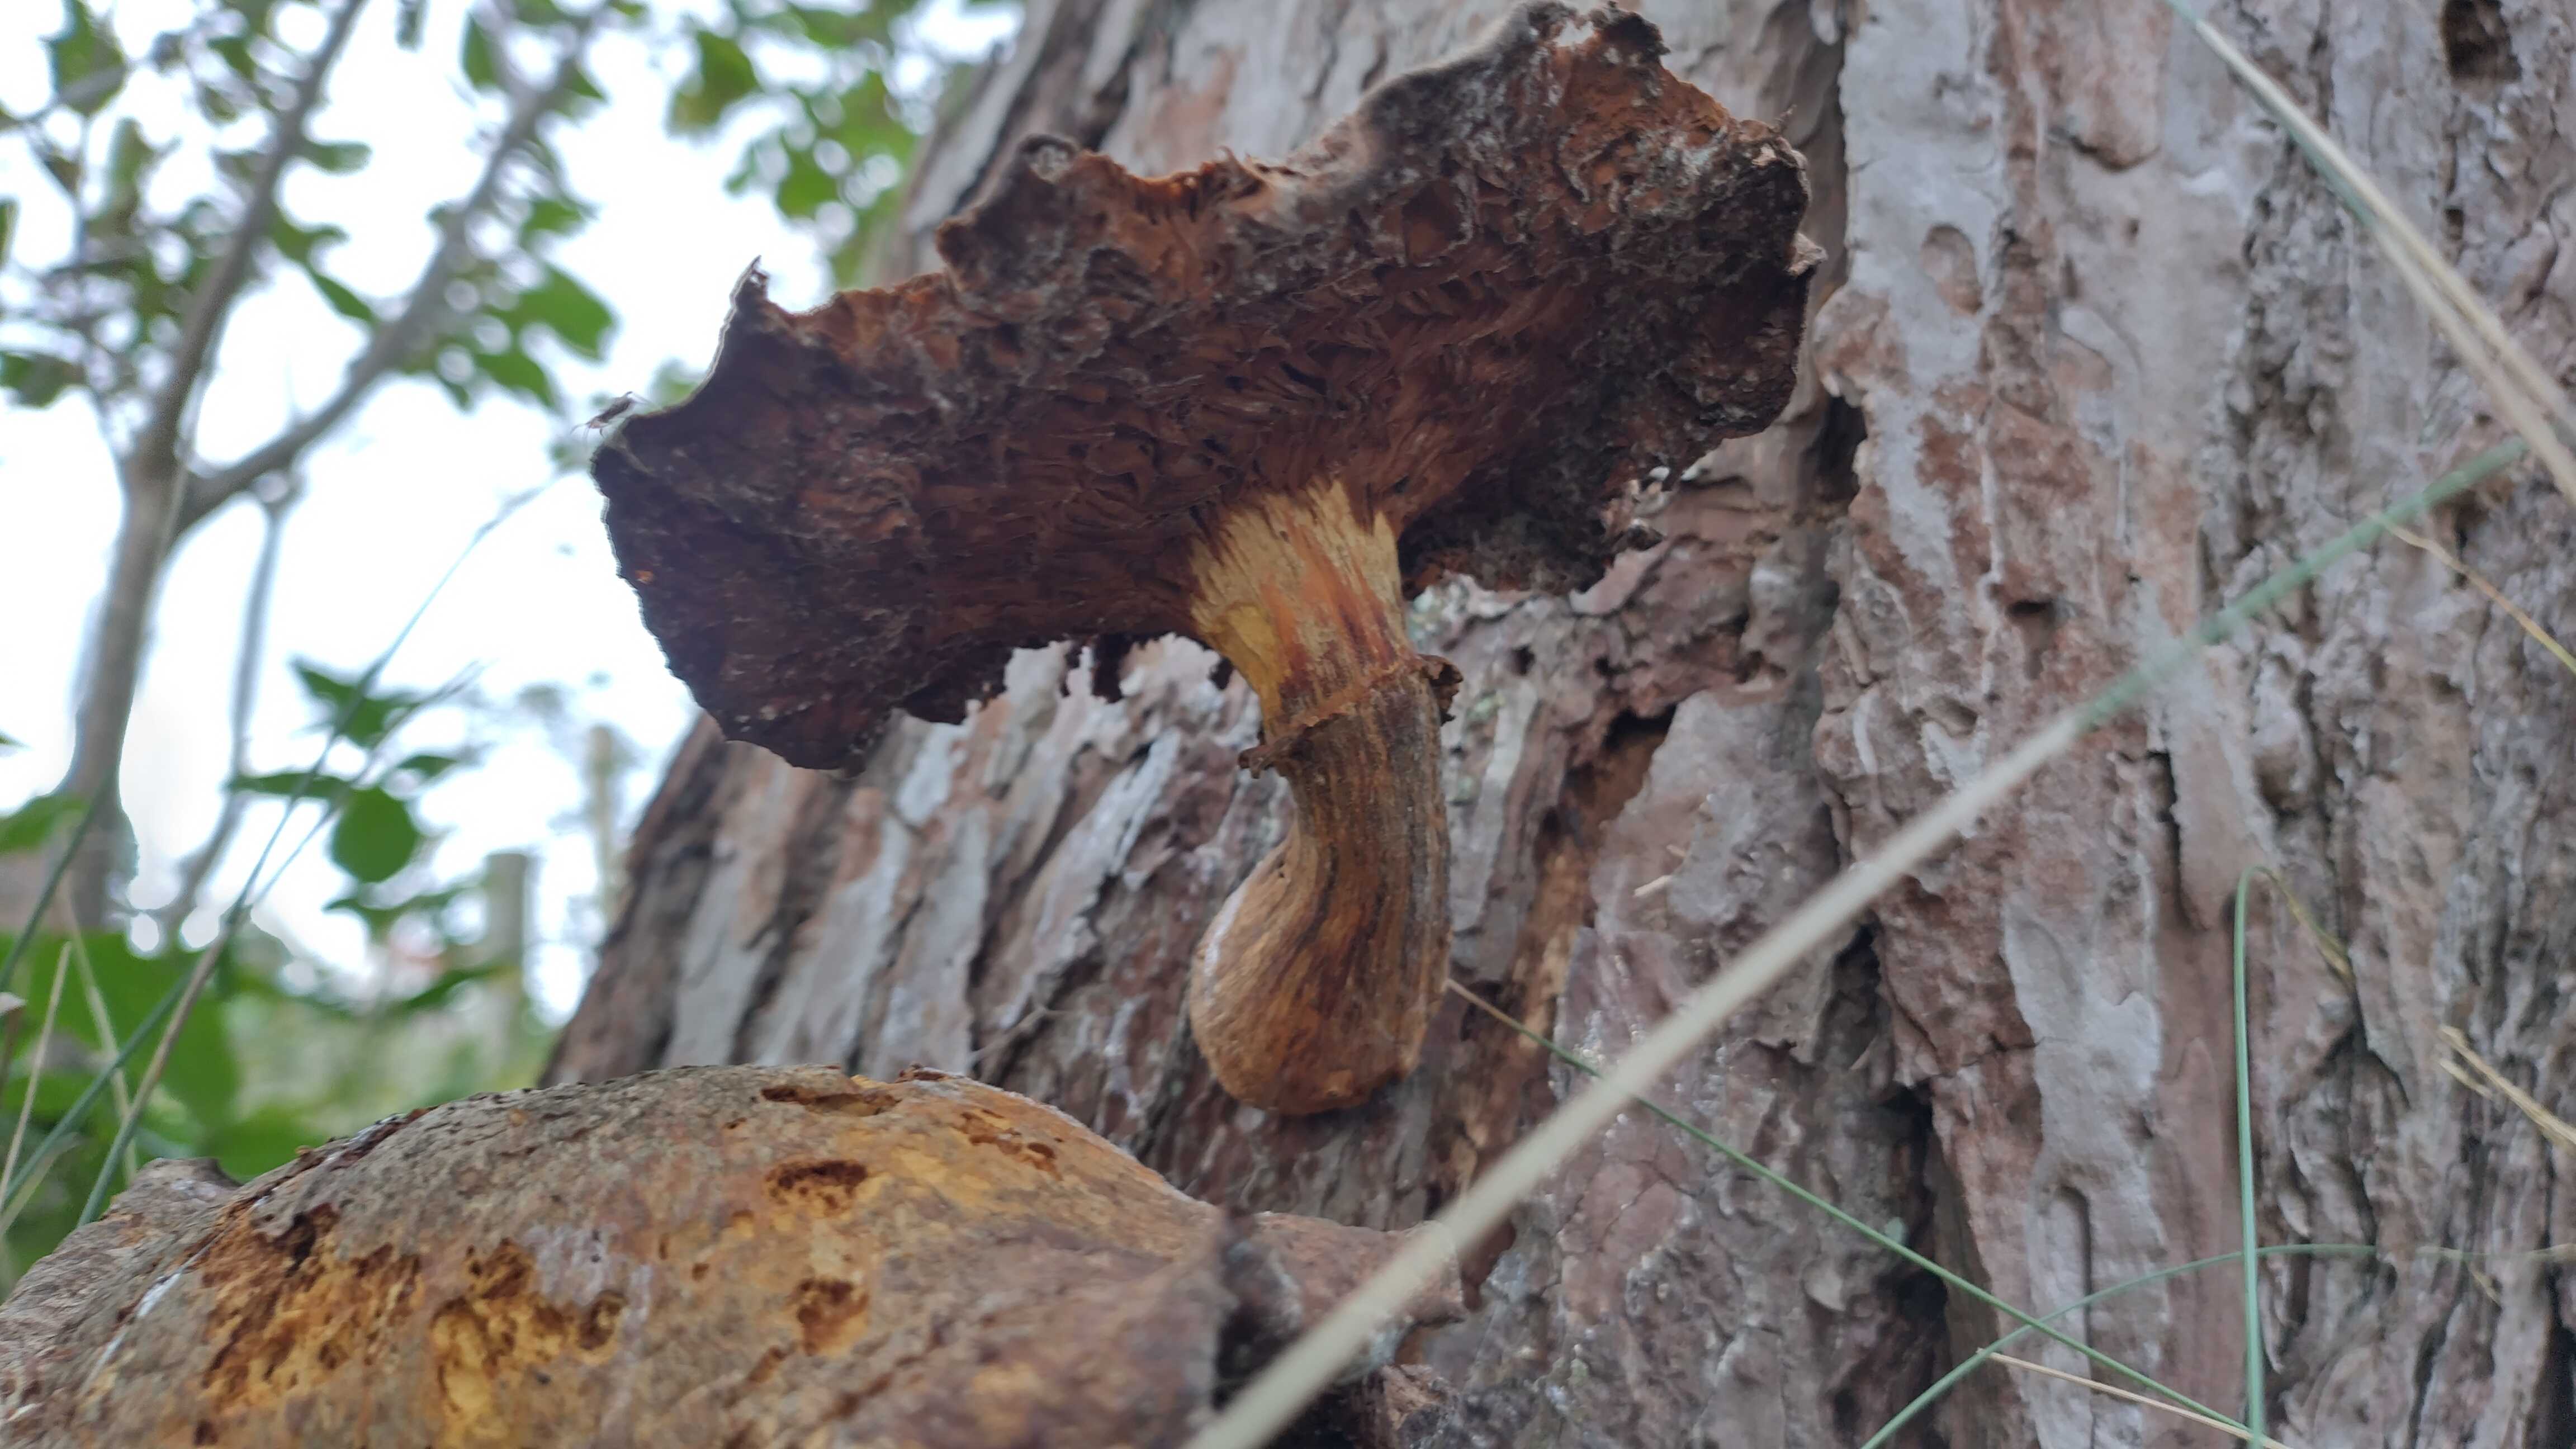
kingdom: Fungi
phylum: Basidiomycota
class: Agaricomycetes
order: Agaricales
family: Hymenogastraceae
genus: Gymnopilus
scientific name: Gymnopilus spectabilis
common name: fibret flammehat
